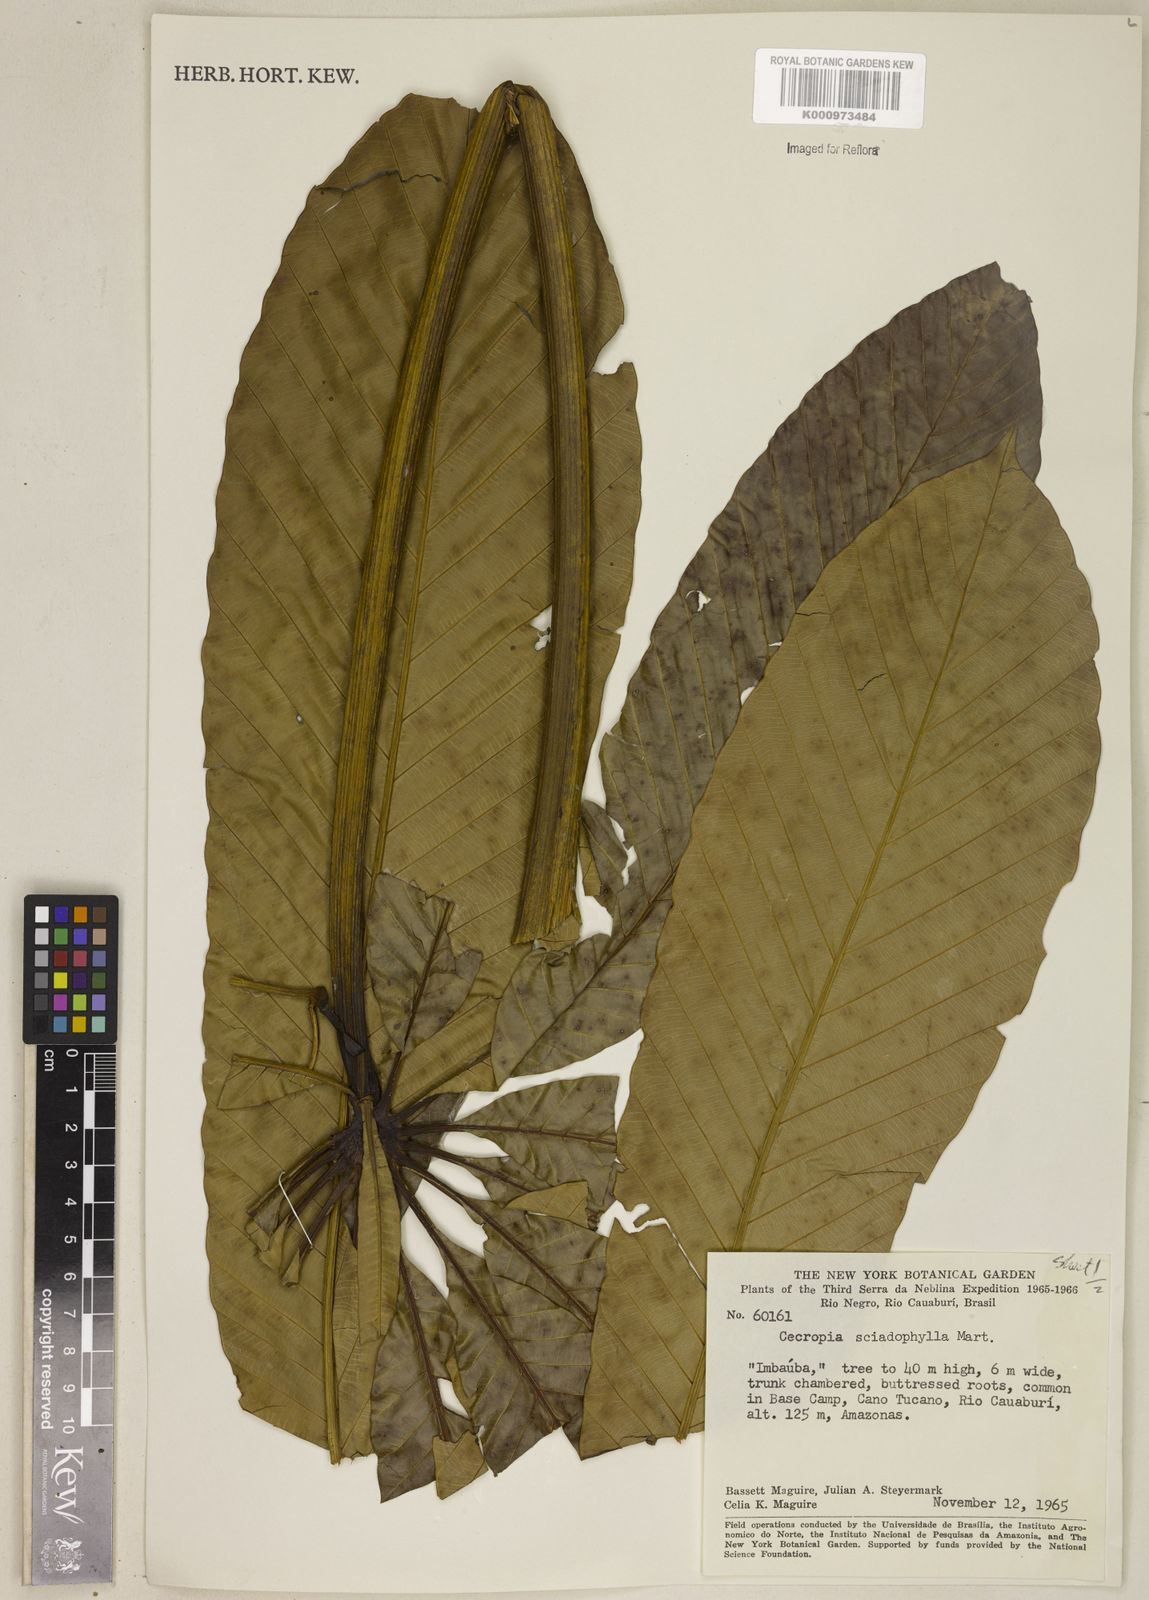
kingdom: Plantae
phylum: Tracheophyta
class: Magnoliopsida
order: Rosales
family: Urticaceae
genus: Cecropia
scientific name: Cecropia sciadophylla
